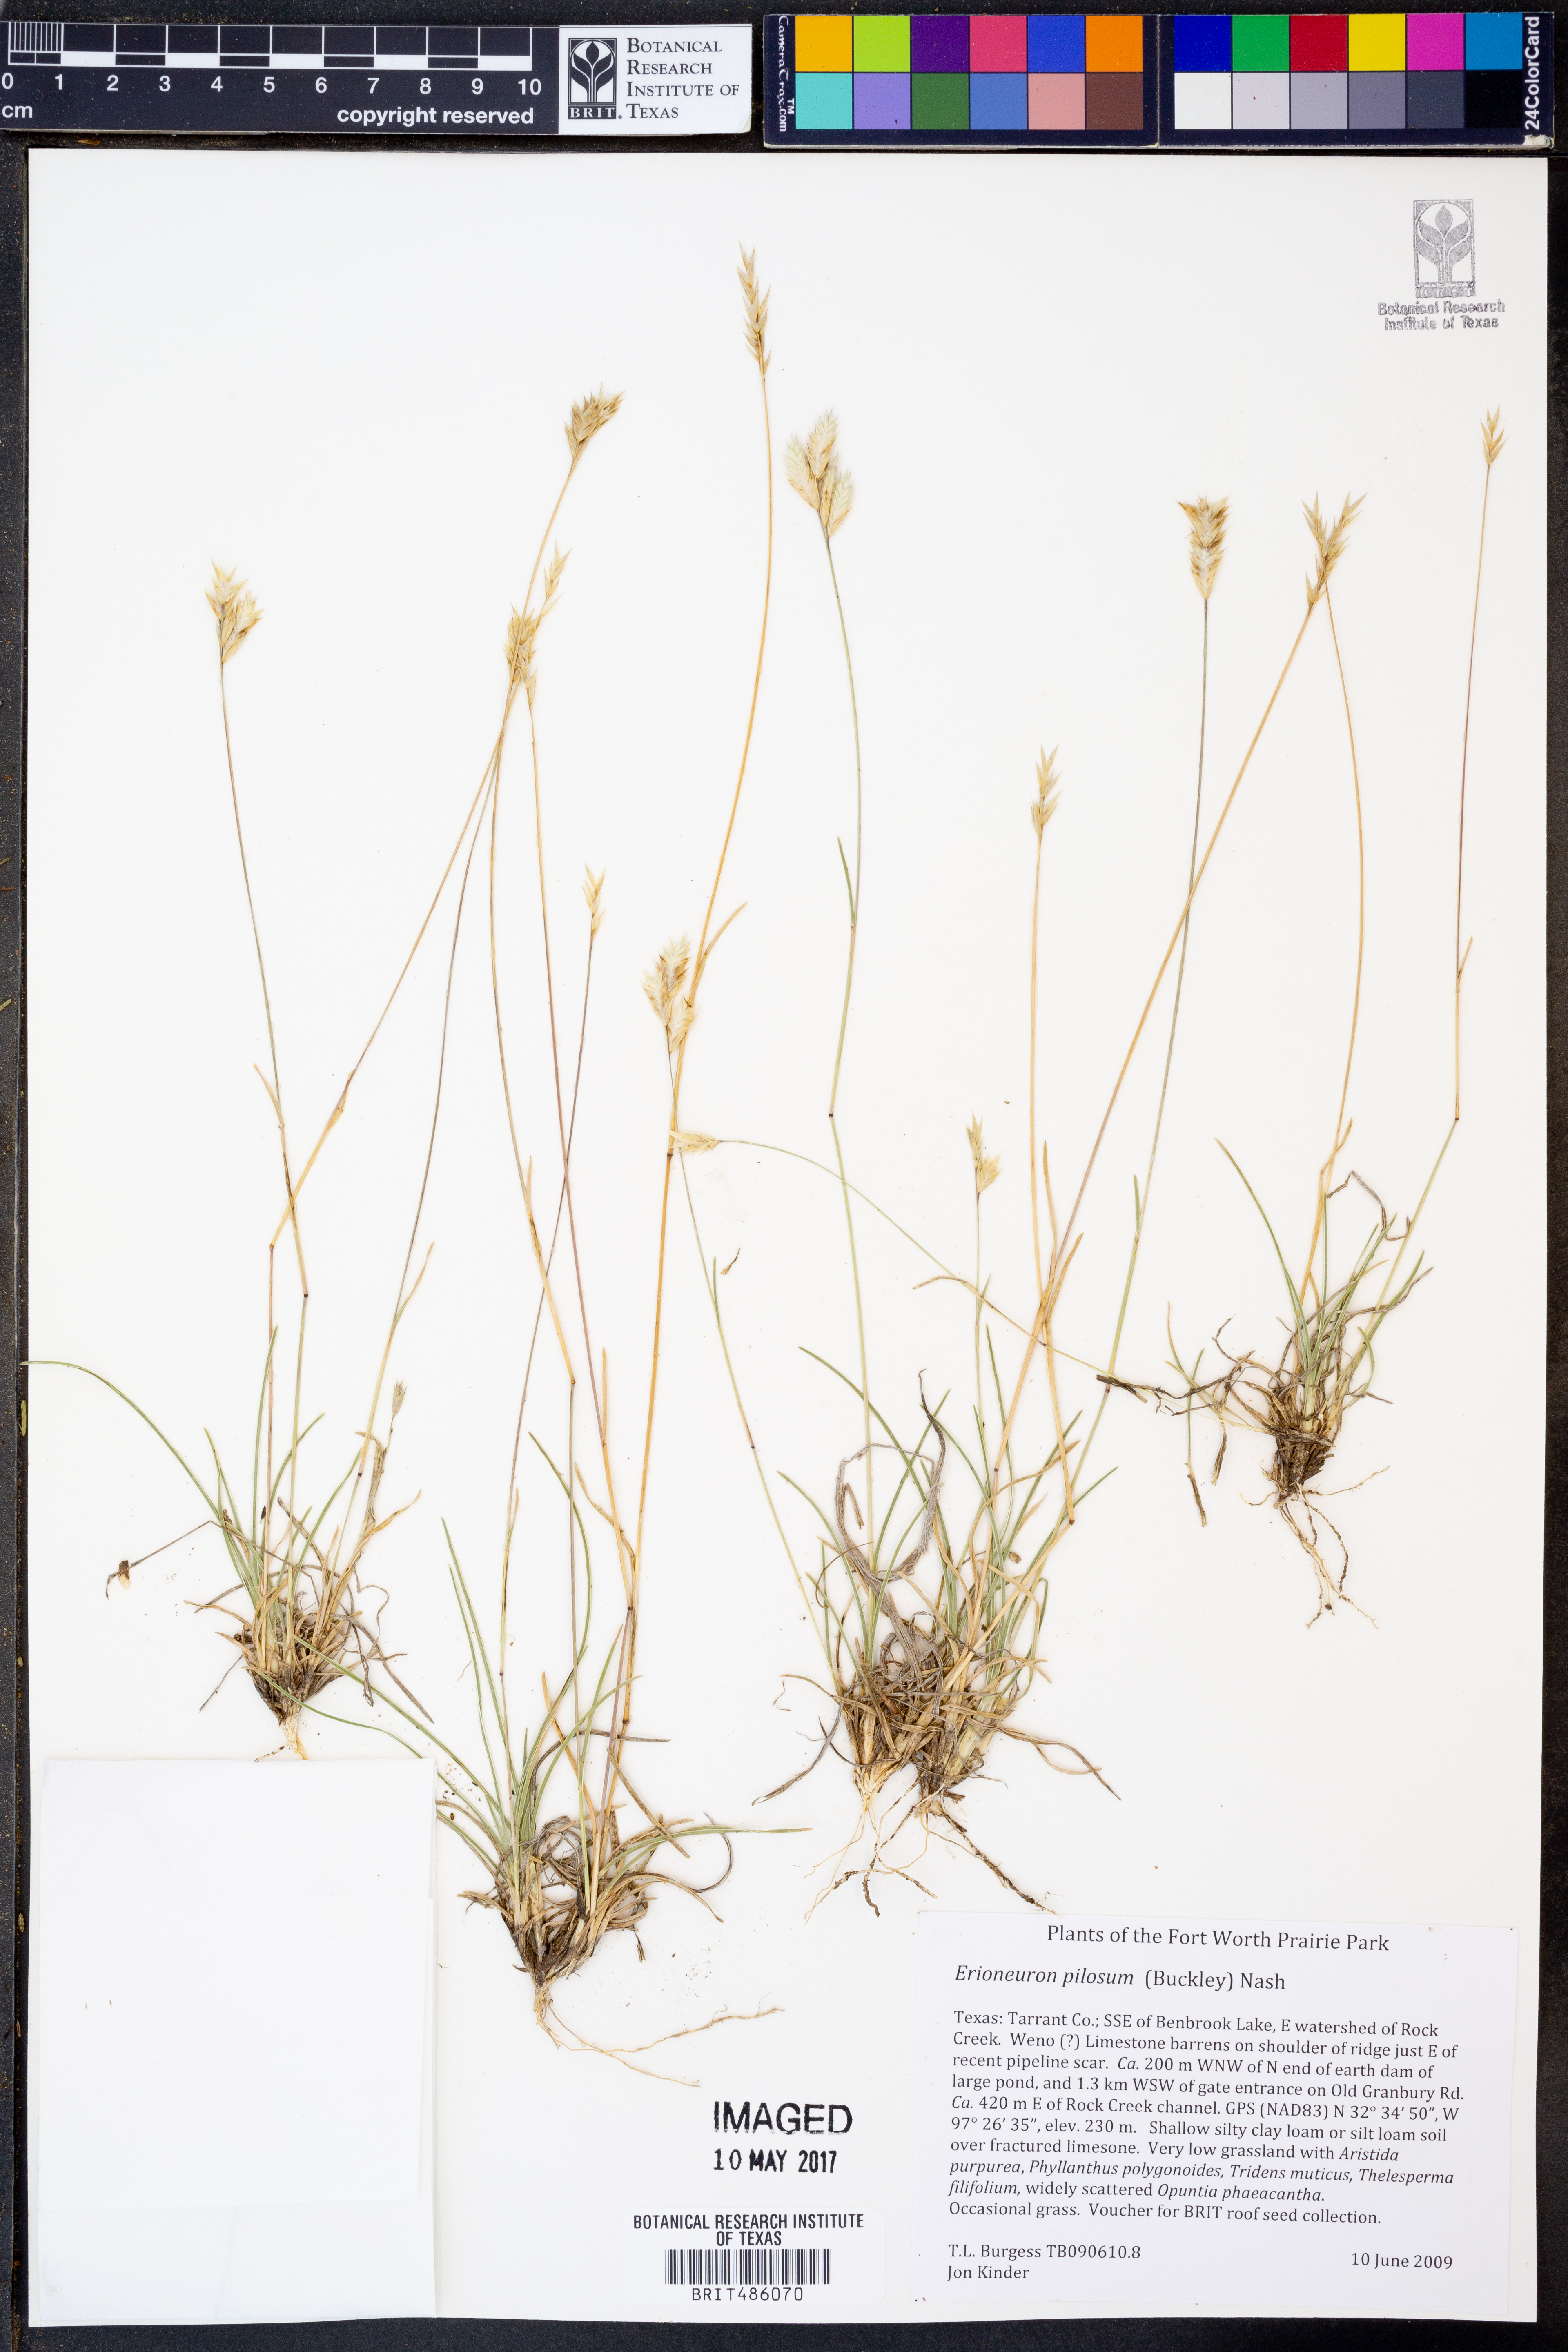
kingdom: Plantae
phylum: Tracheophyta
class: Liliopsida
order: Poales
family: Poaceae
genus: Erioneuron
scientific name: Erioneuron pilosum
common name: Hairy woolly grass
